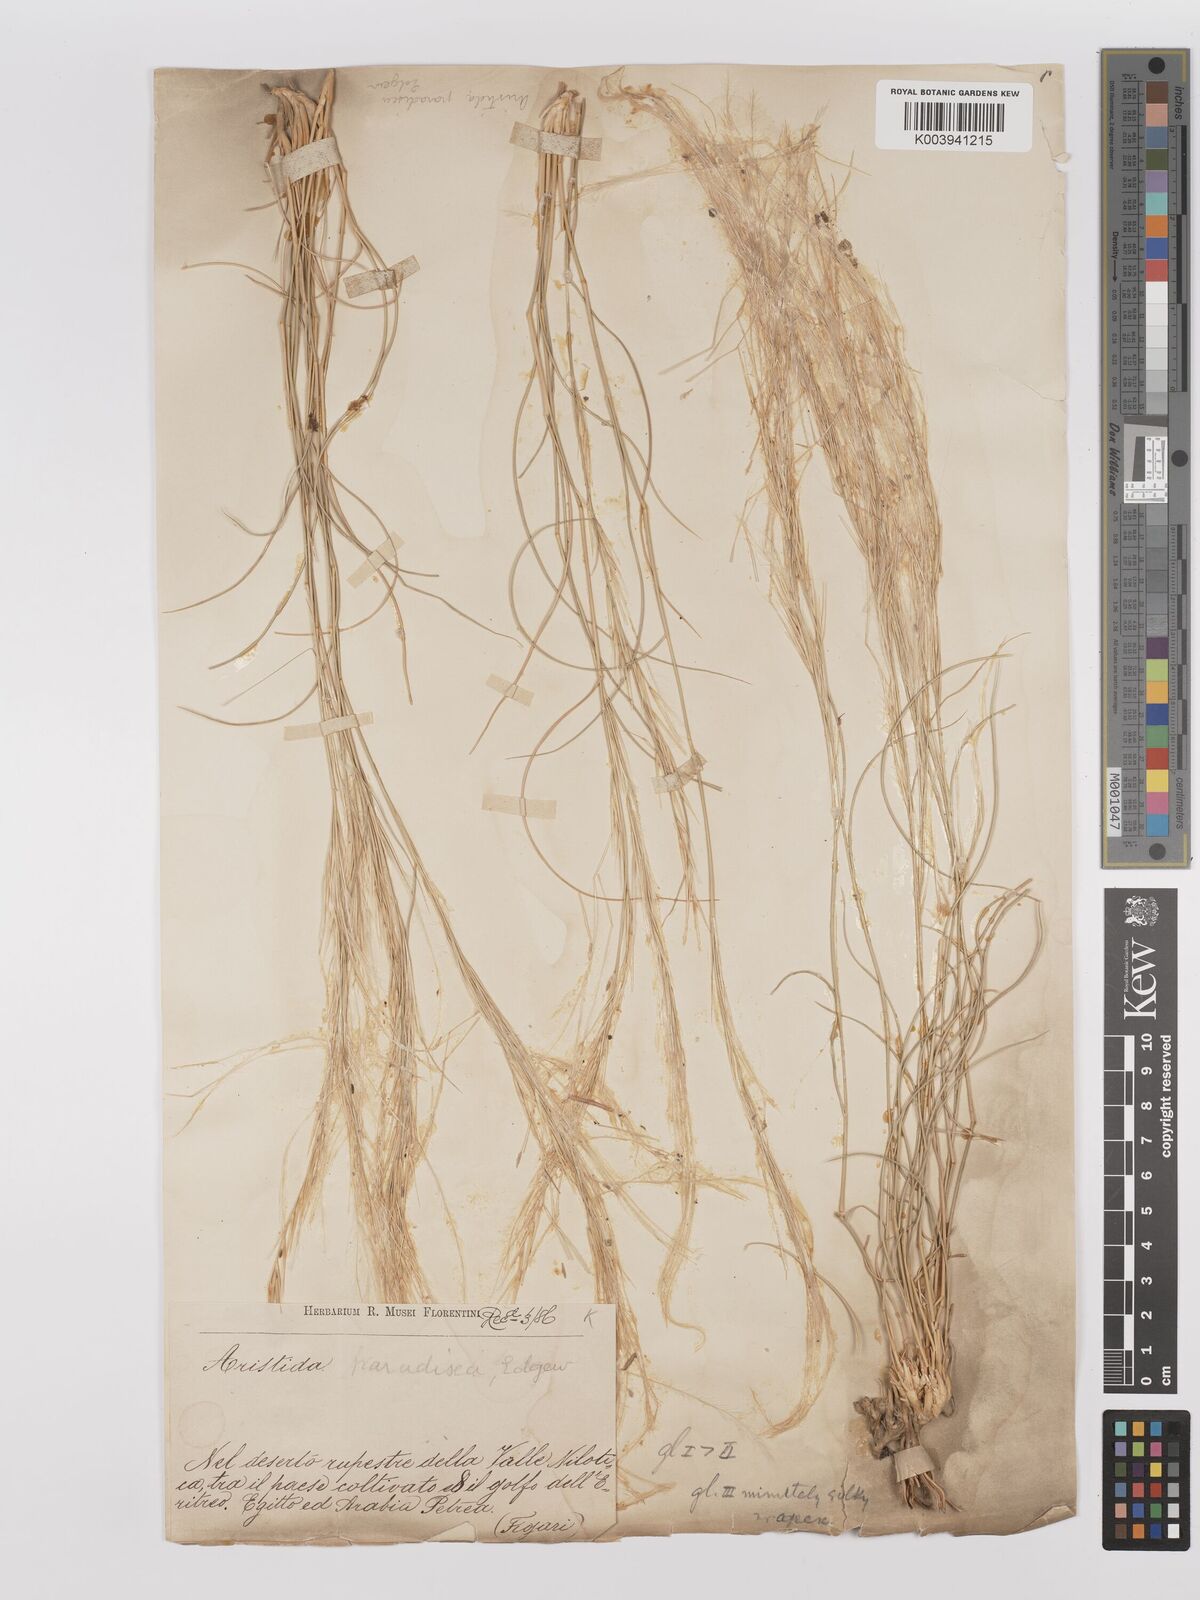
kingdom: Plantae
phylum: Tracheophyta
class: Liliopsida
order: Poales
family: Poaceae
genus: Stipagrostis
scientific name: Stipagrostis paradisea
